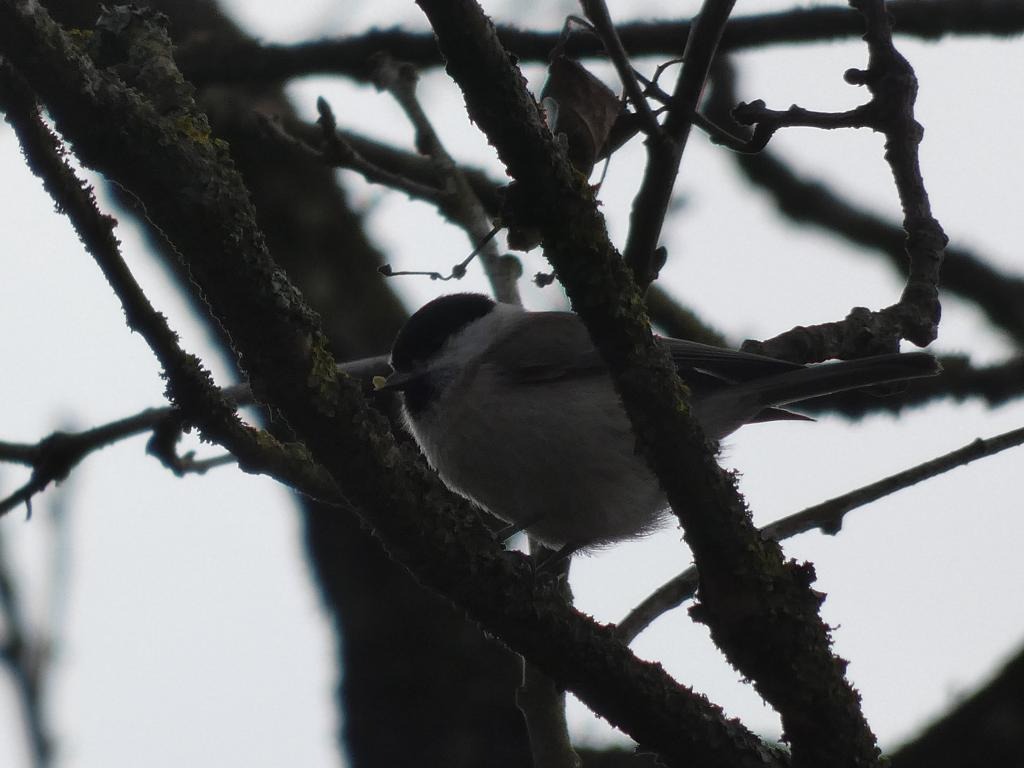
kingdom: Animalia
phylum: Chordata
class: Aves
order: Passeriformes
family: Paridae
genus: Poecile
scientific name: Poecile palustris
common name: Sumpmejse
